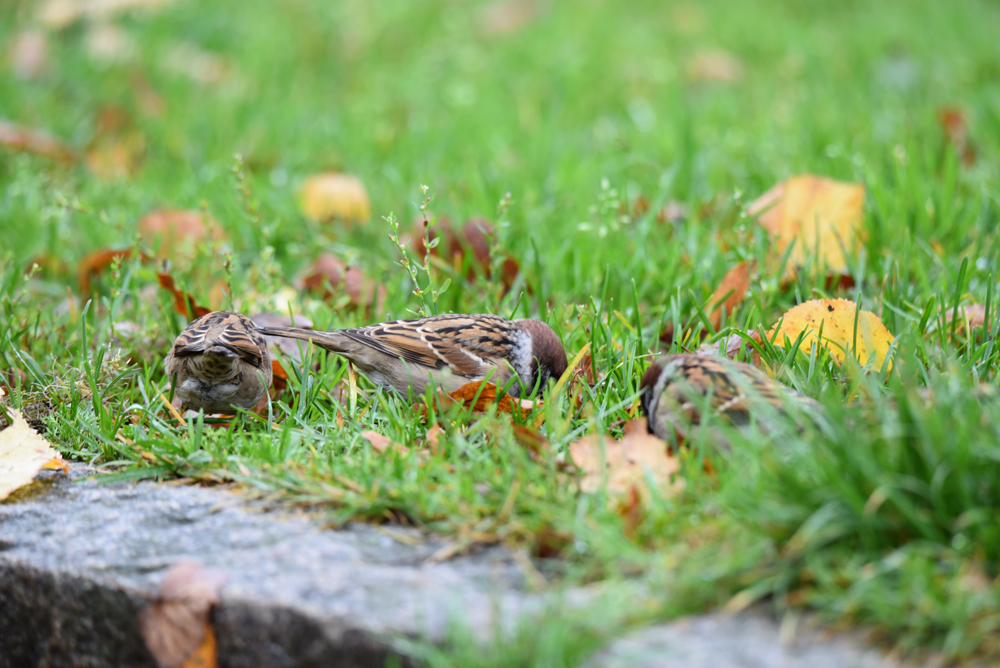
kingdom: Animalia
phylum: Chordata
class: Aves
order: Passeriformes
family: Passeridae
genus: Passer
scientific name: Passer montanus
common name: Eurasian tree sparrow
